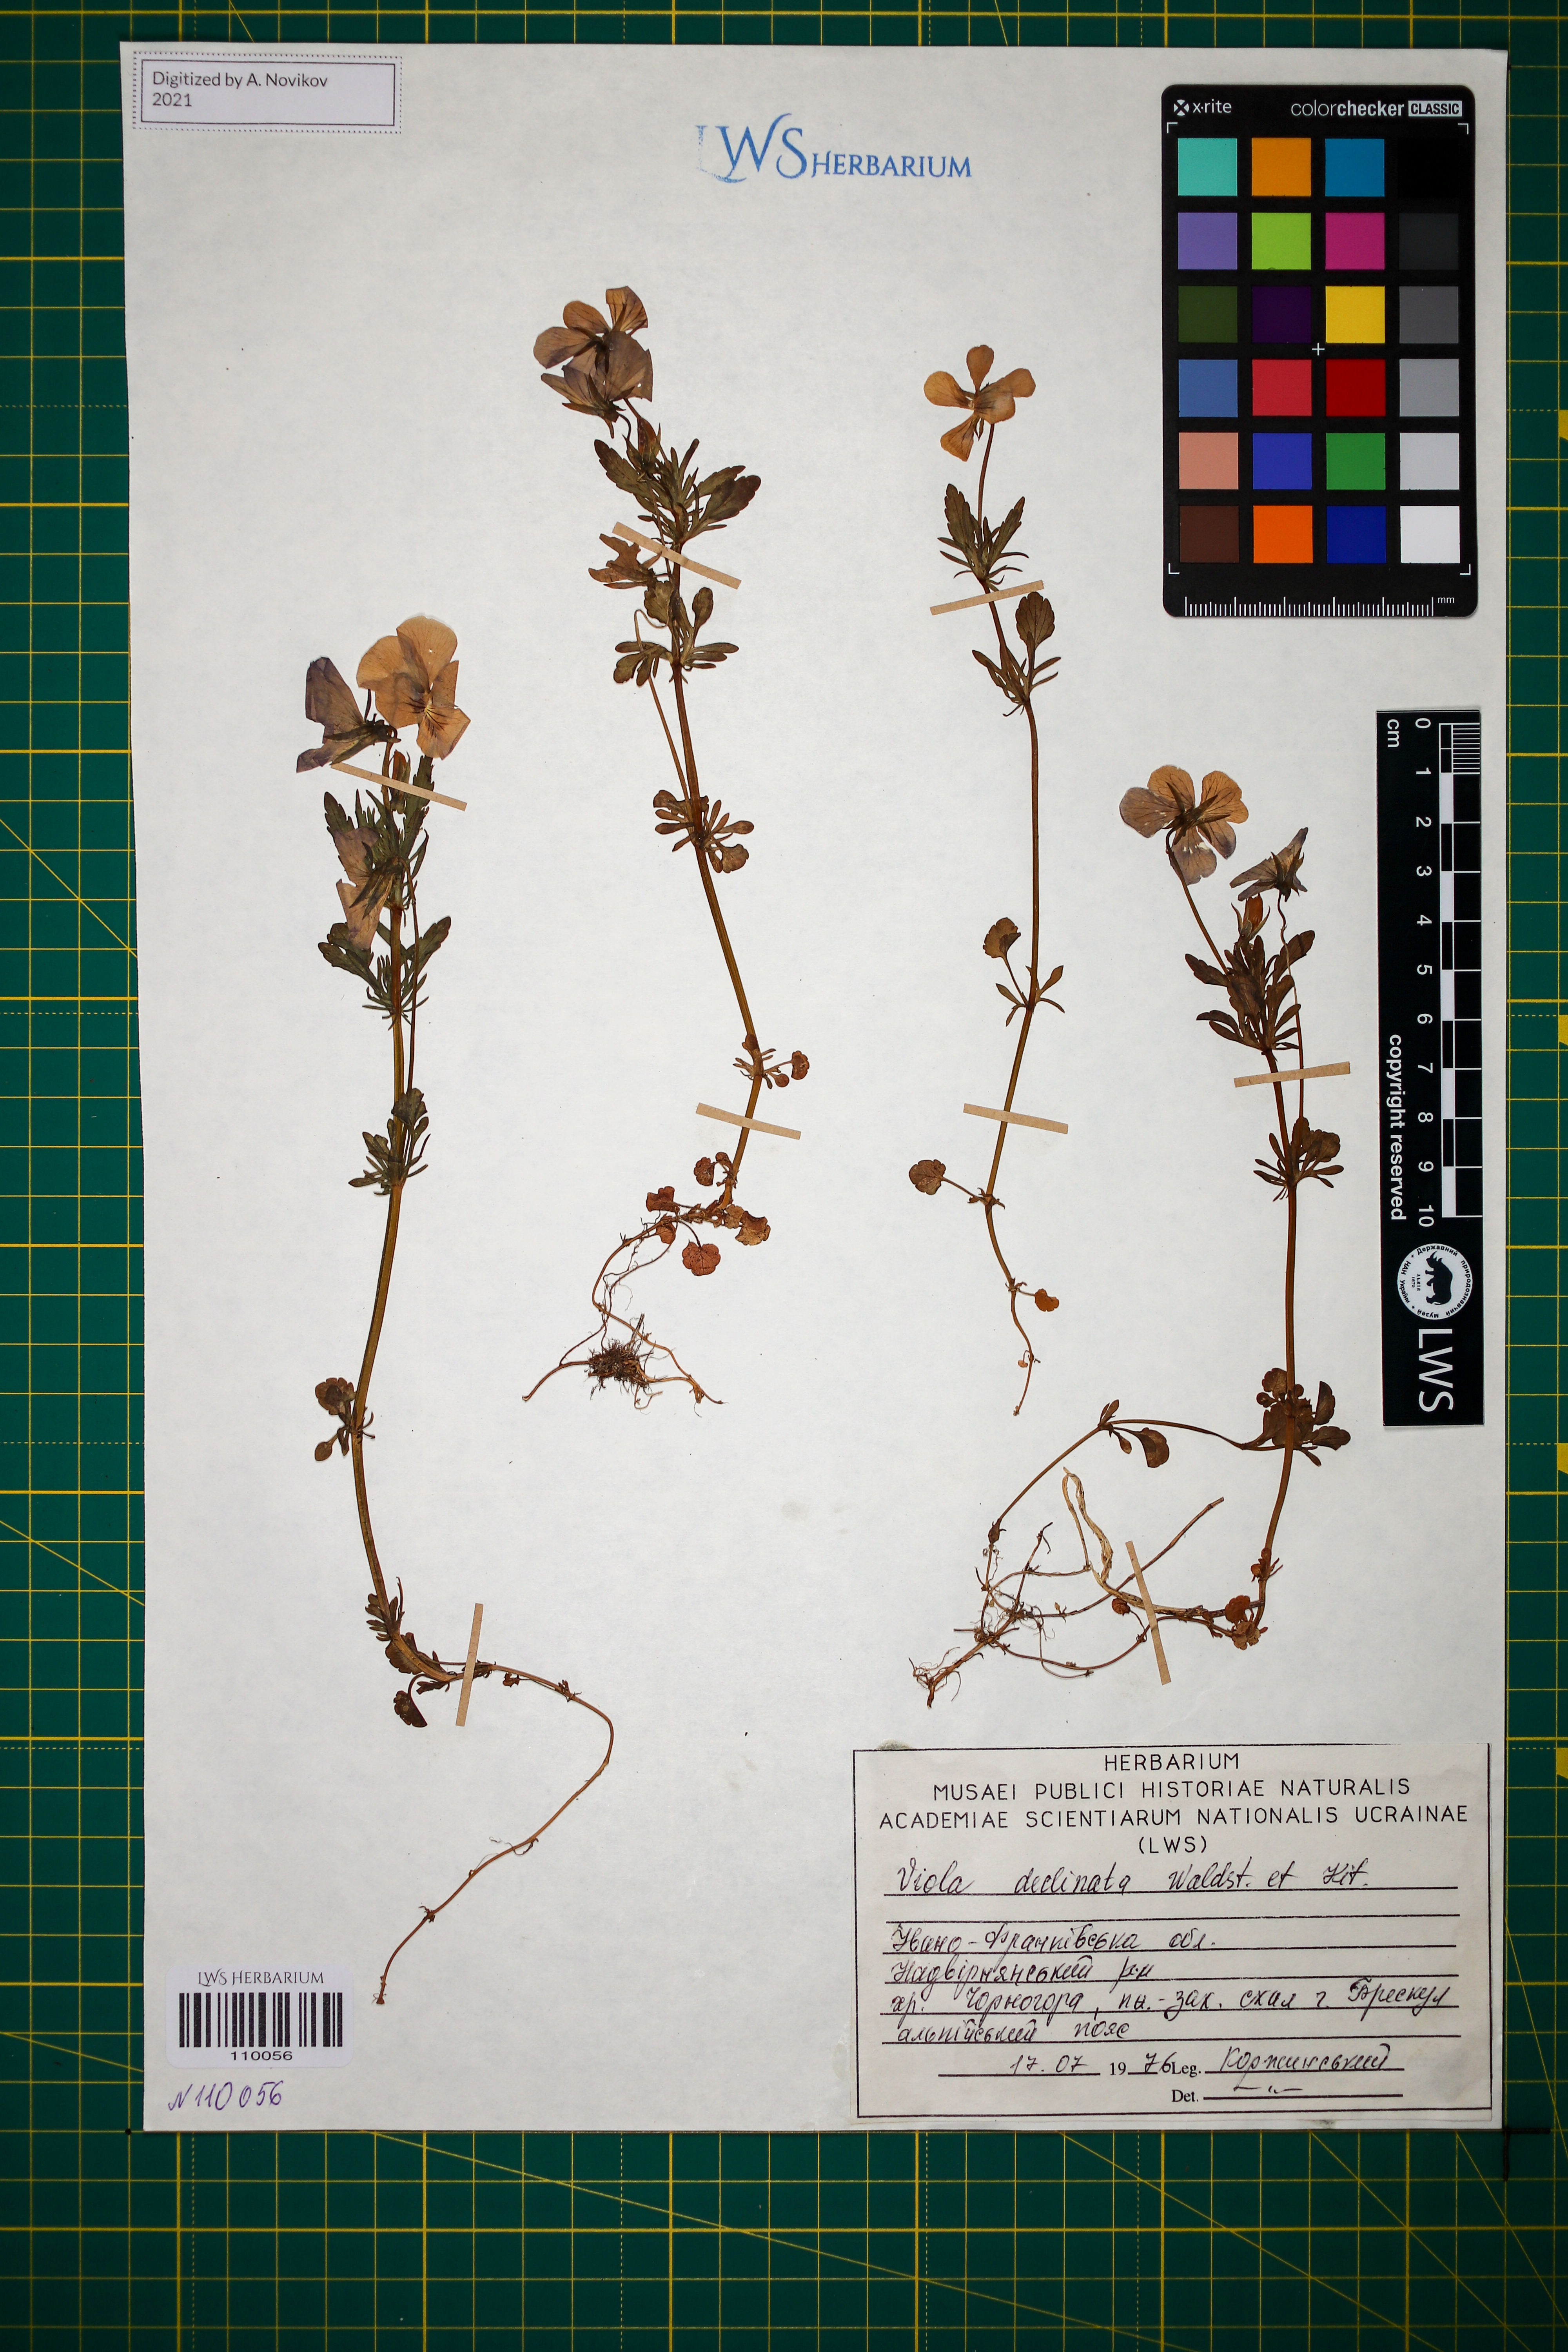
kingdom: Plantae
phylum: Tracheophyta
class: Magnoliopsida
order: Malpighiales
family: Violaceae
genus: Viola
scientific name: Viola declinata
